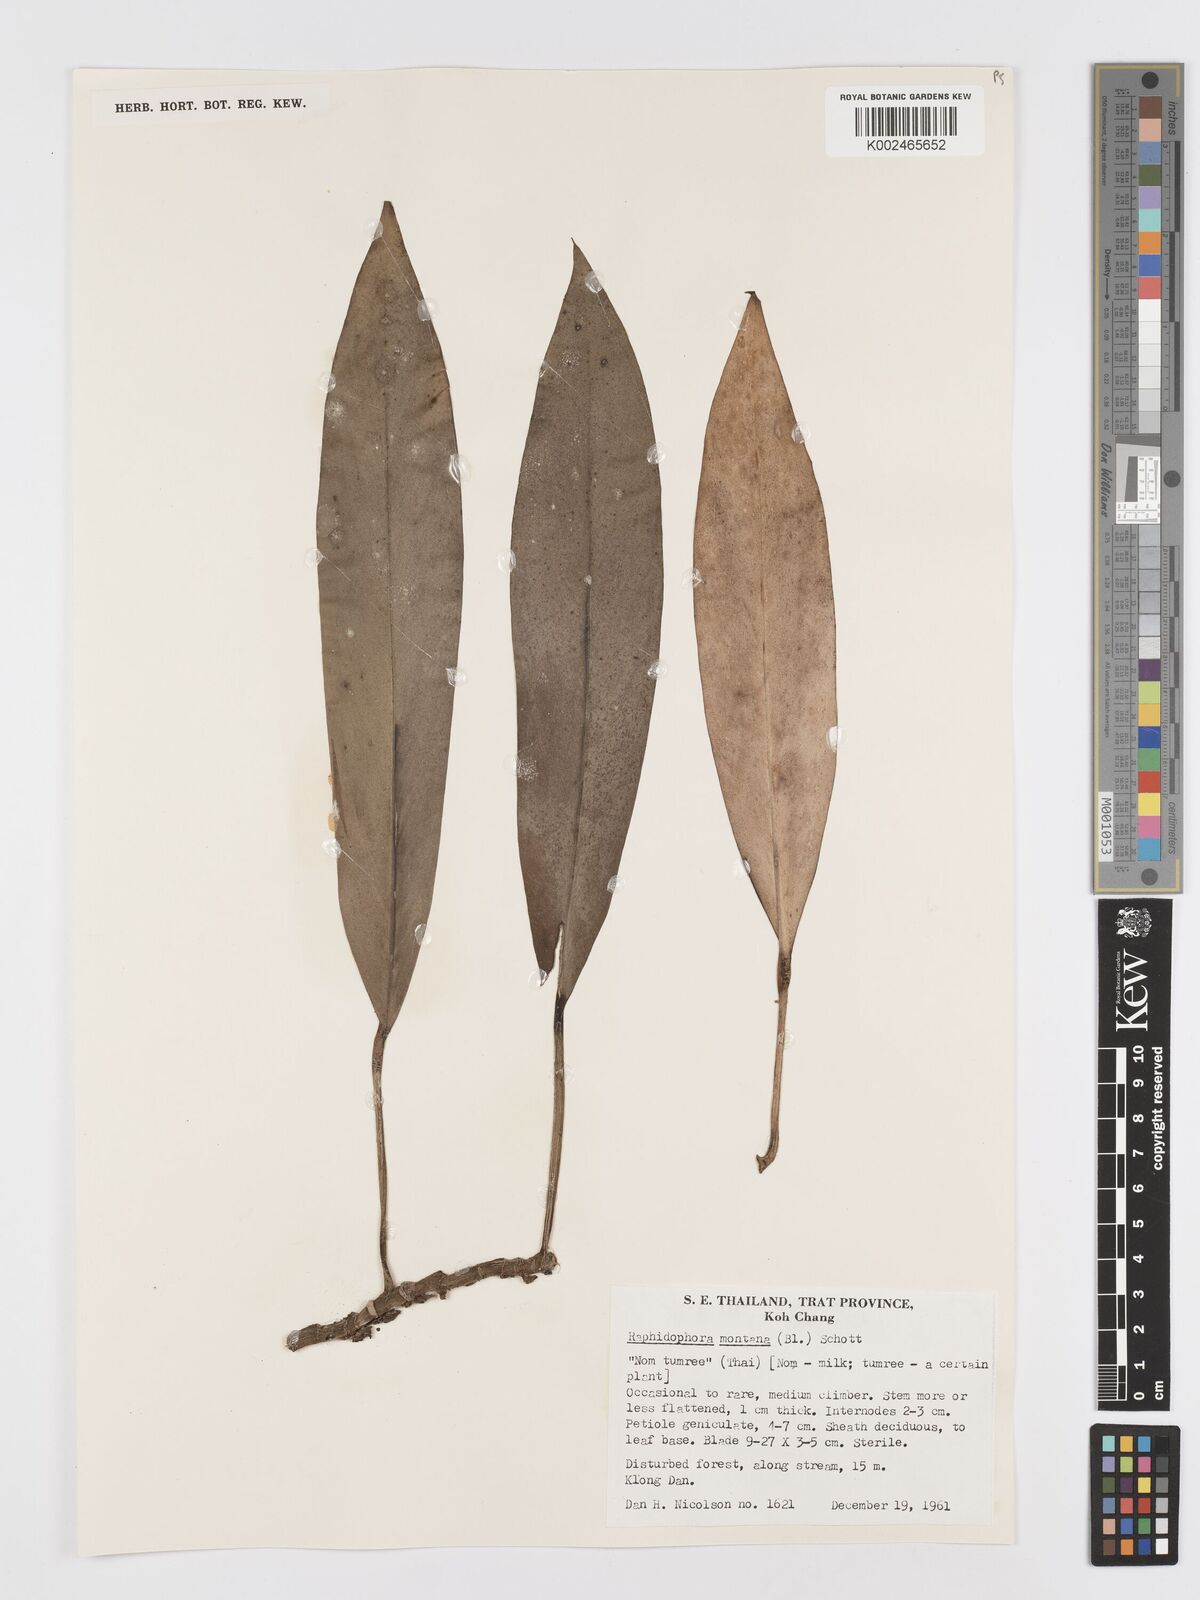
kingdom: Plantae
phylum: Tracheophyta
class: Liliopsida
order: Alismatales
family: Araceae
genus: Rhaphidophora
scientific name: Rhaphidophora sylvestris
